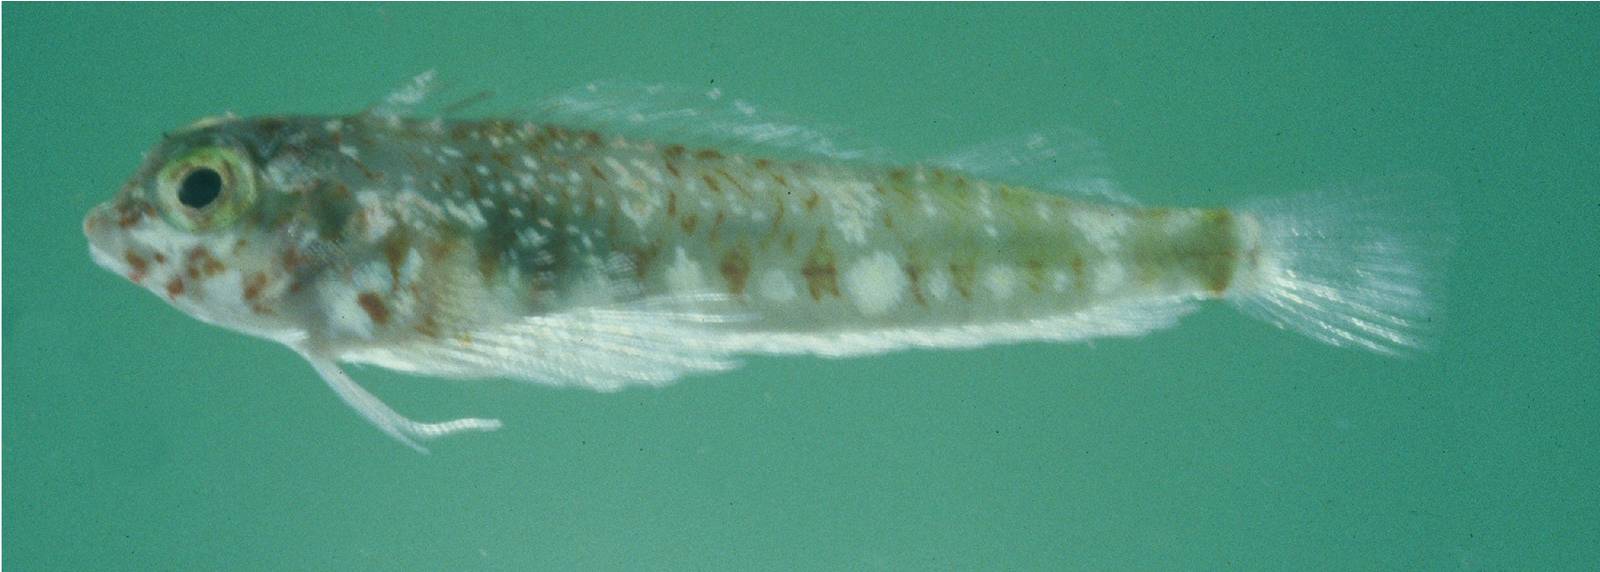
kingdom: Animalia
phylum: Chordata
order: Perciformes
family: Tripterygiidae
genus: Helcogramma
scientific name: Helcogramma ememes
